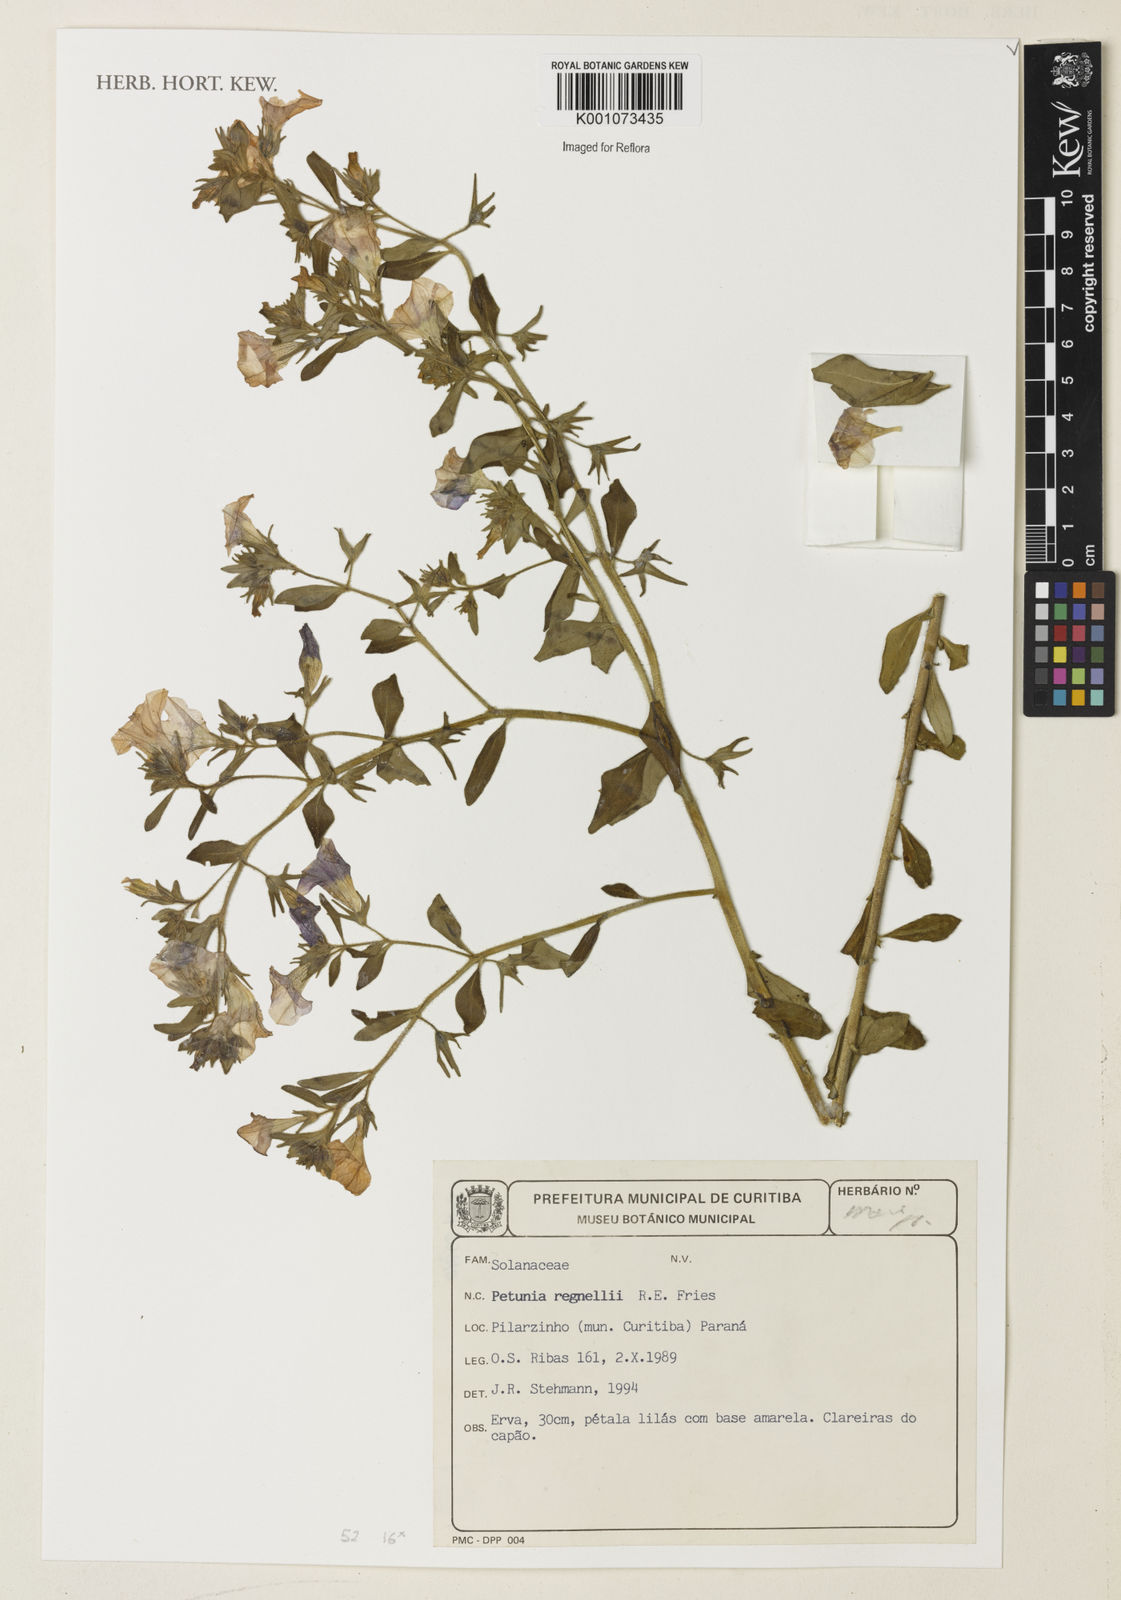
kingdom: Plantae
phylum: Tracheophyta
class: Magnoliopsida
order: Solanales
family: Solanaceae
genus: Nierembergia
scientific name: Nierembergia
